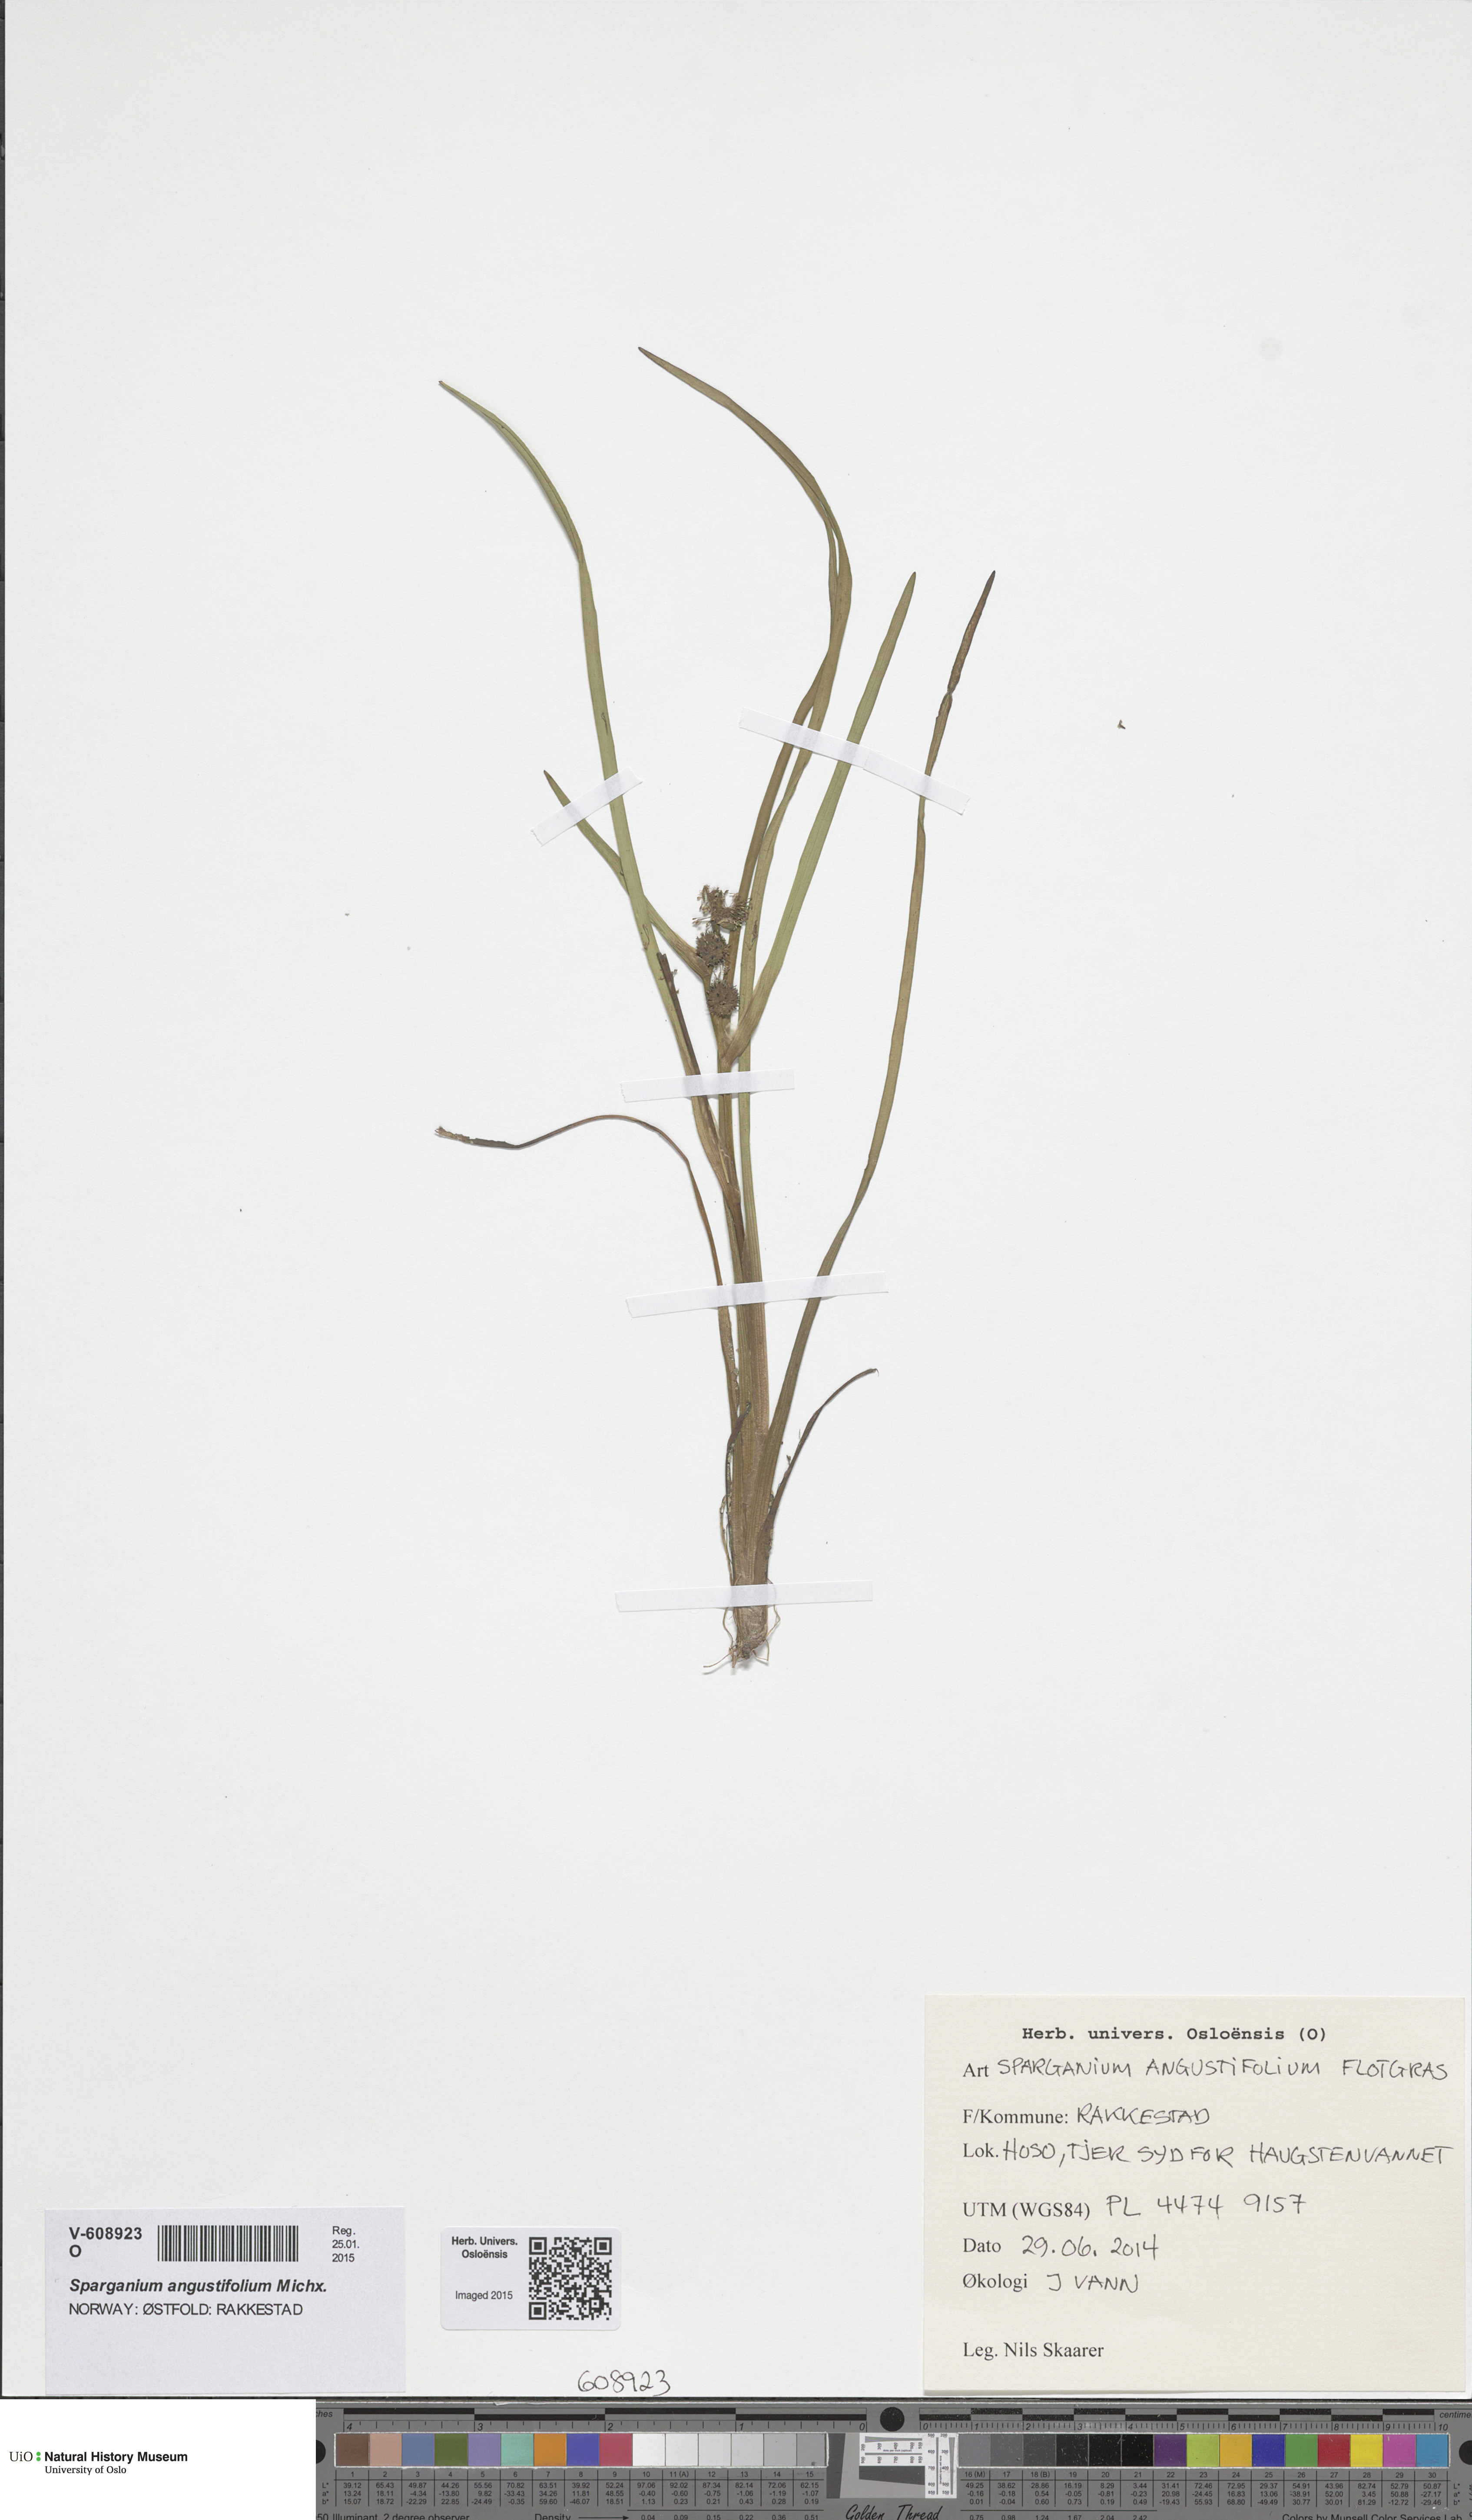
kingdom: Plantae
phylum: Tracheophyta
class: Liliopsida
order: Poales
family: Typhaceae
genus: Sparganium
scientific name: Sparganium angustifolium
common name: Floating bur-reed
